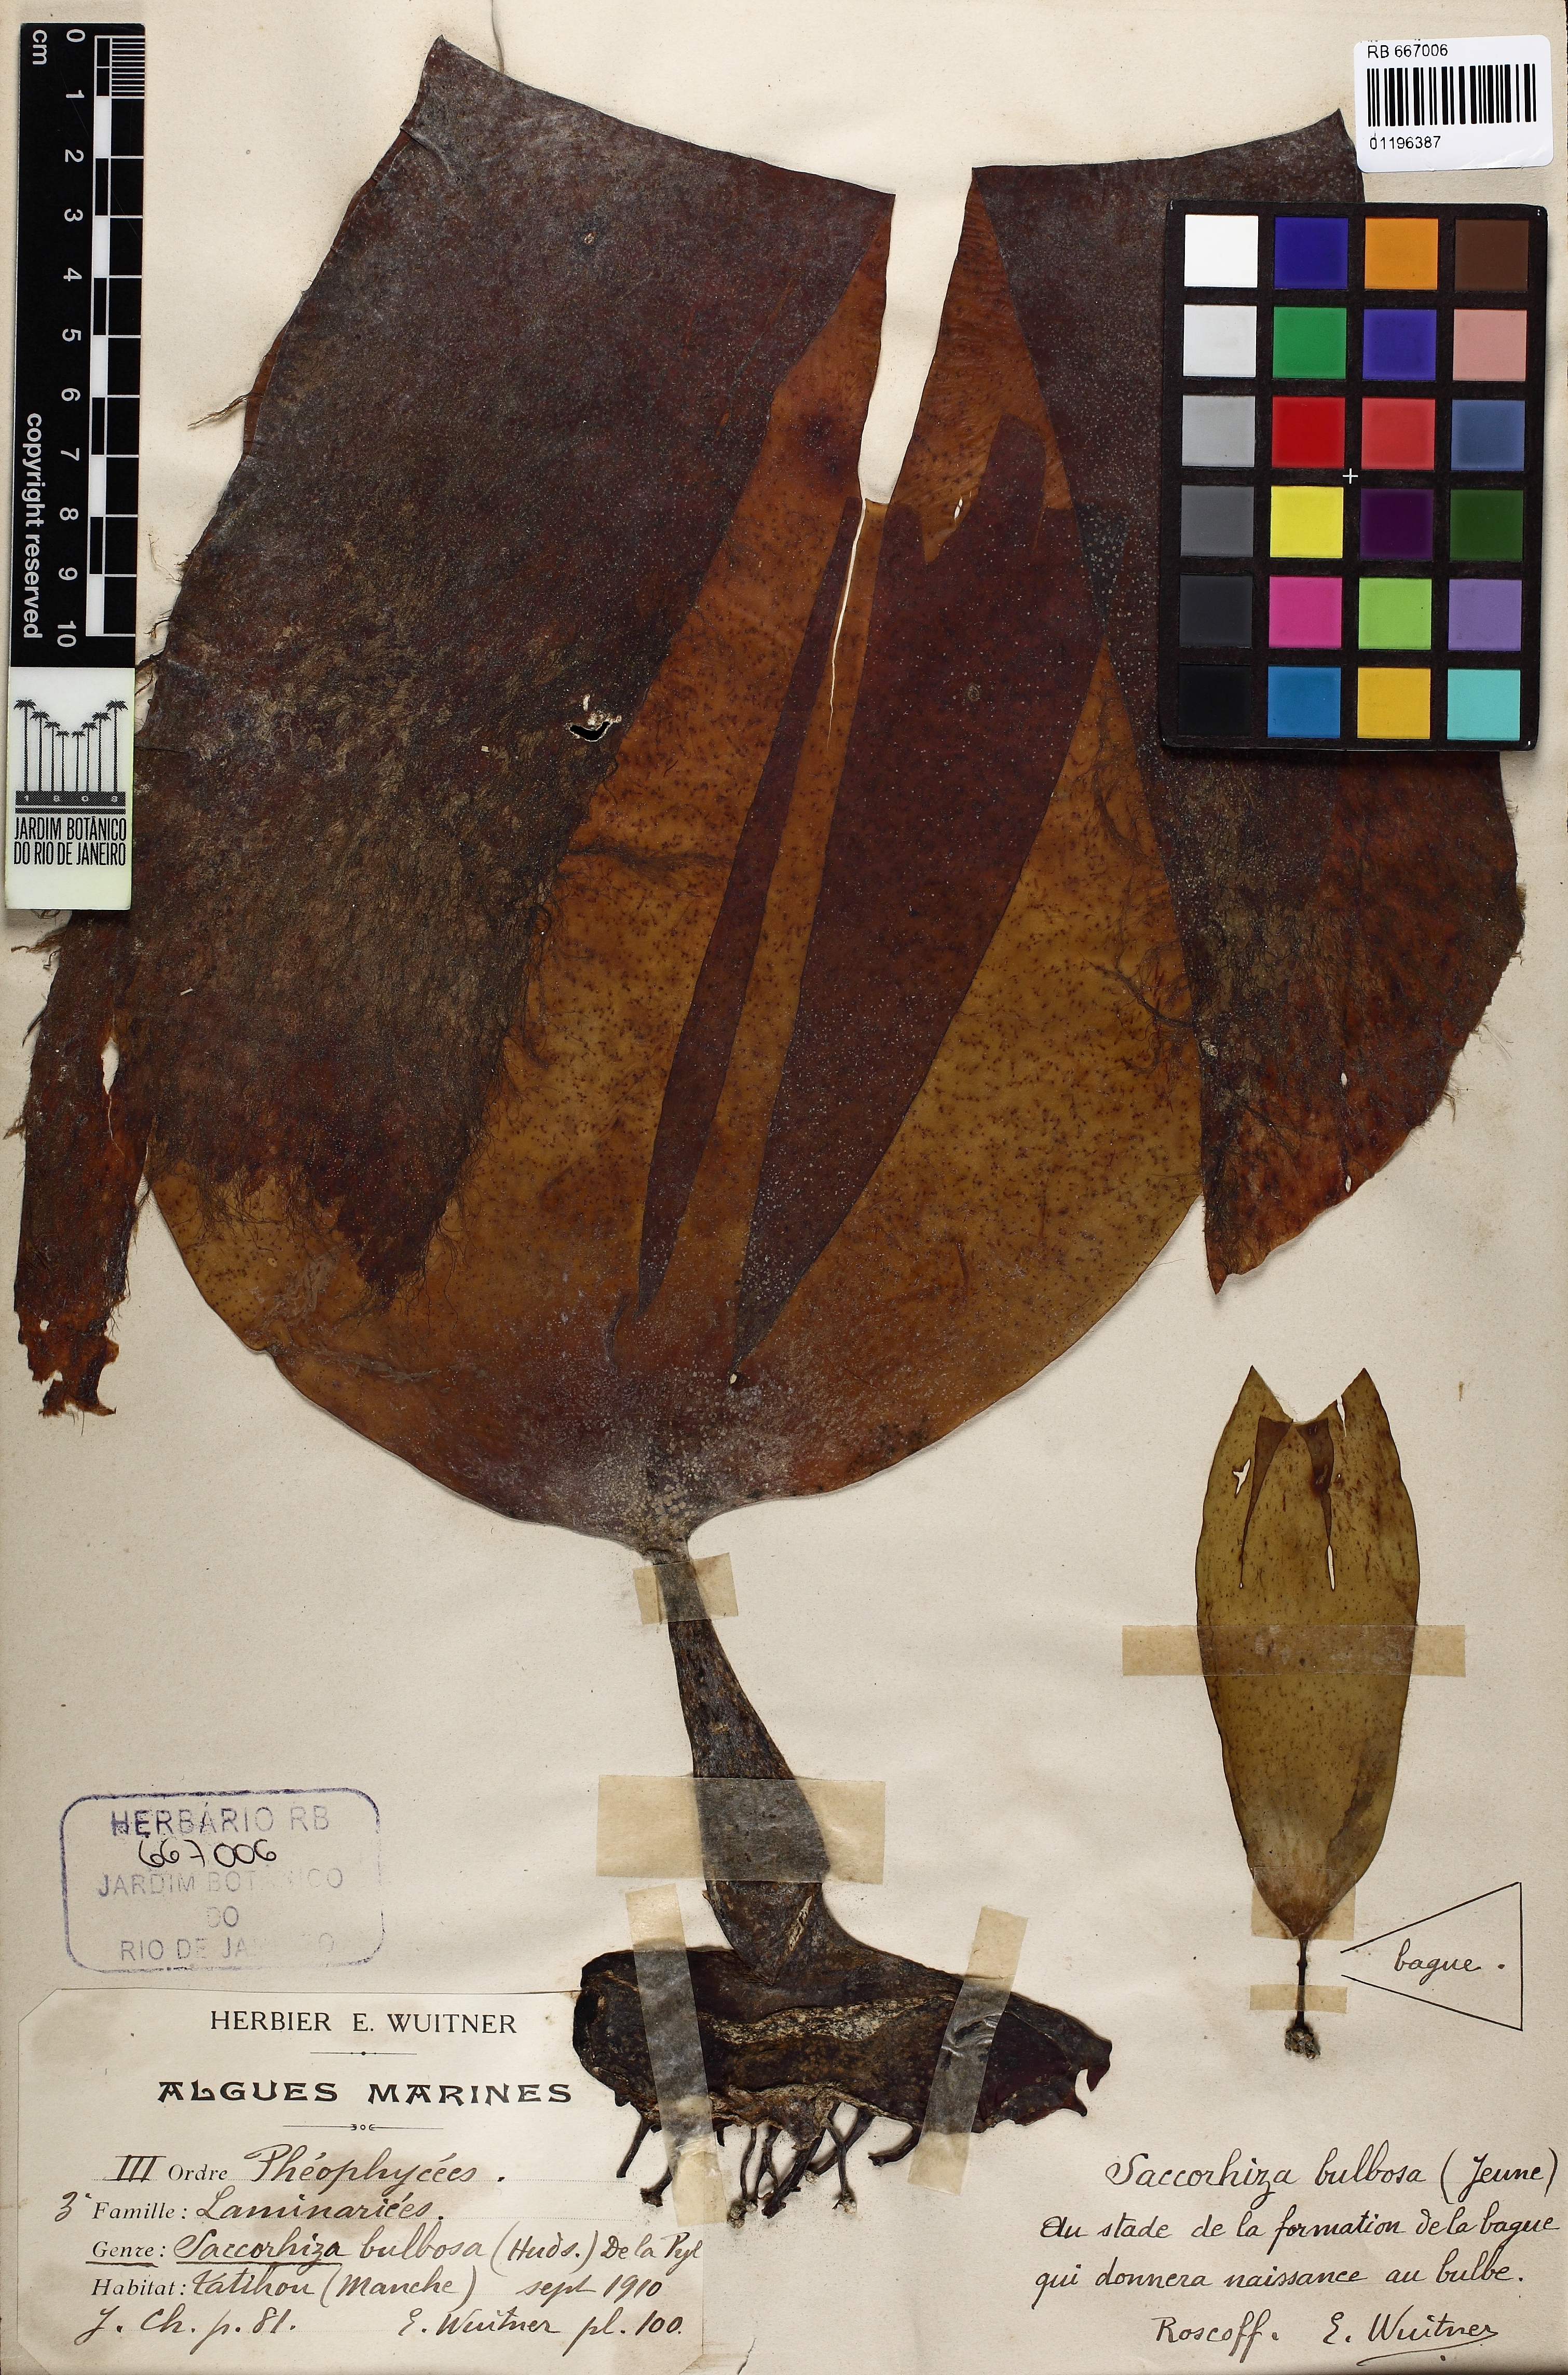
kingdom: Chromista
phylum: Ochrophyta
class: Phaeophyceae
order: Tilopteridales
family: Phyllariaceae
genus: Saccorhiza
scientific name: Saccorhiza polyschides
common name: Furbelows
